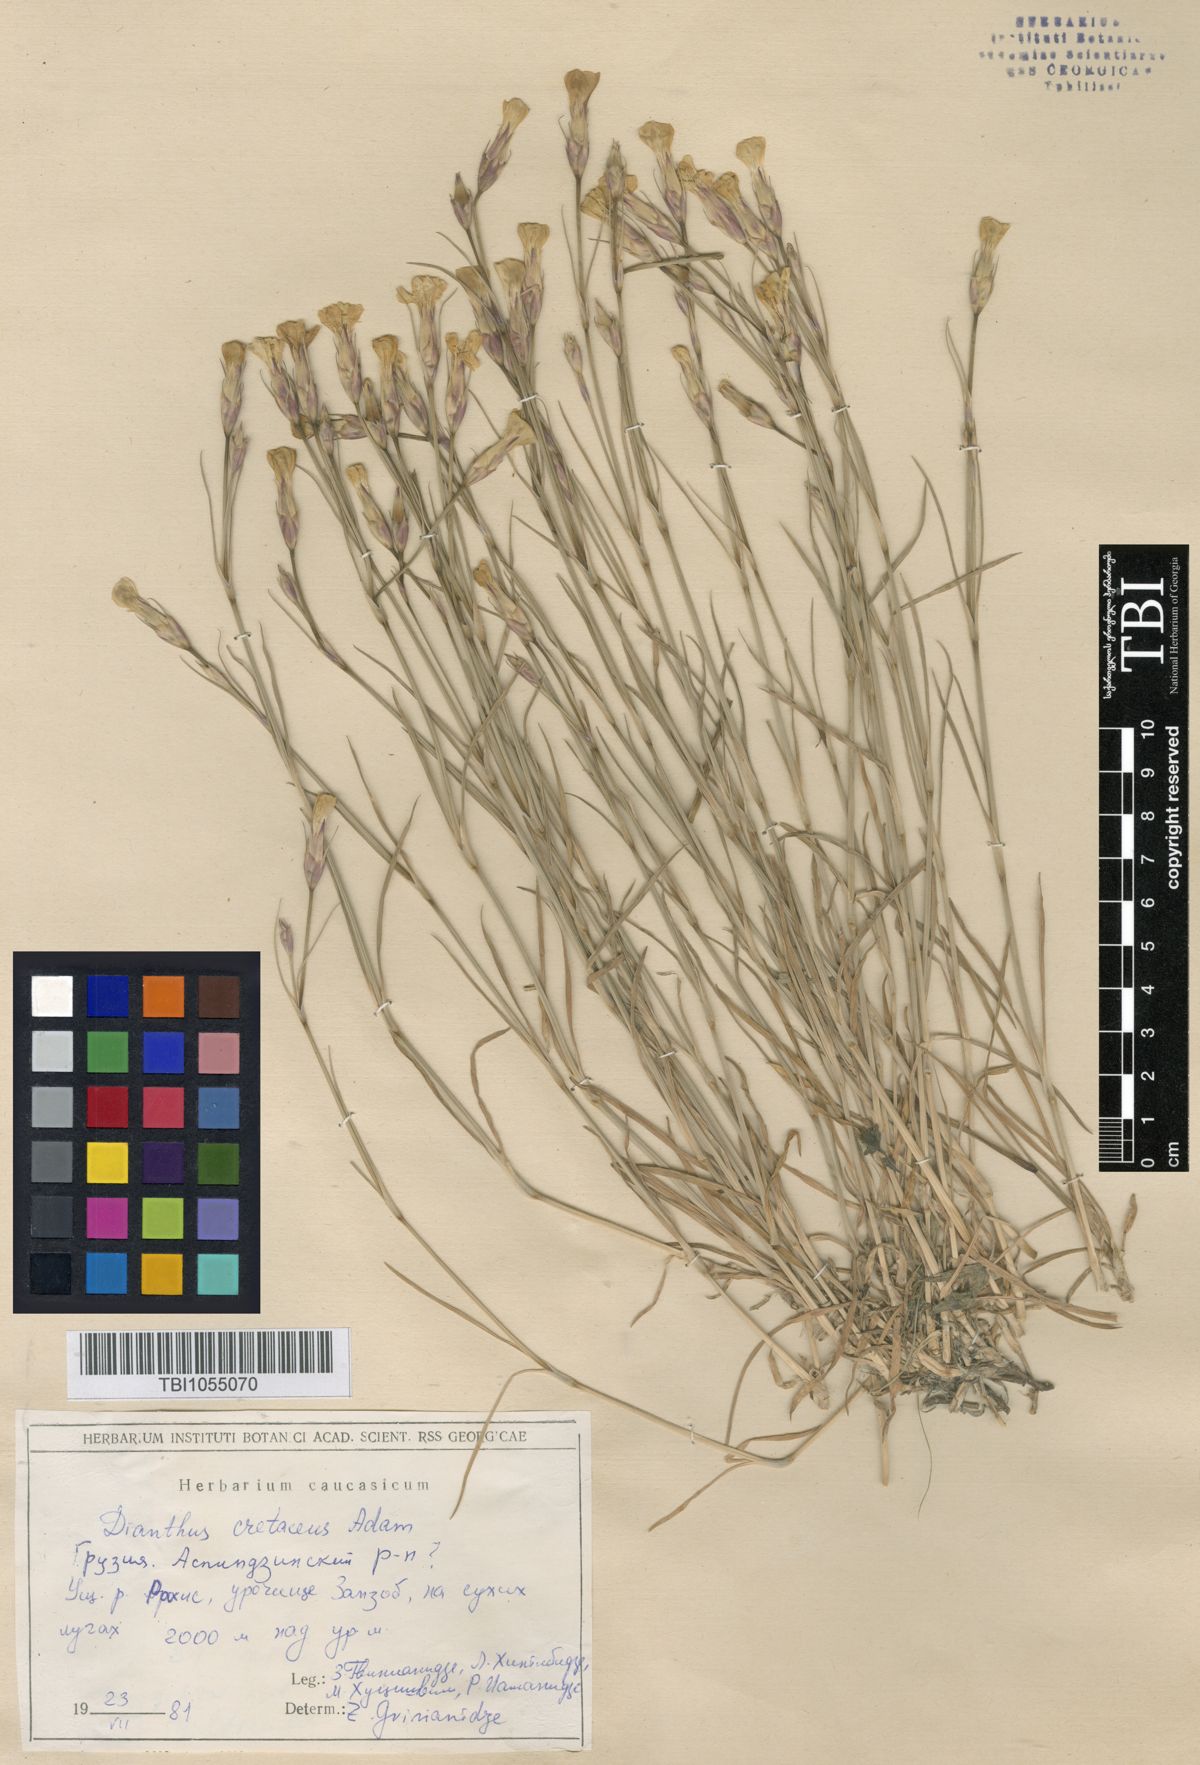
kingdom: Plantae
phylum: Tracheophyta
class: Magnoliopsida
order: Caryophyllales
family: Caryophyllaceae
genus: Dianthus
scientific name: Dianthus cretaceus
